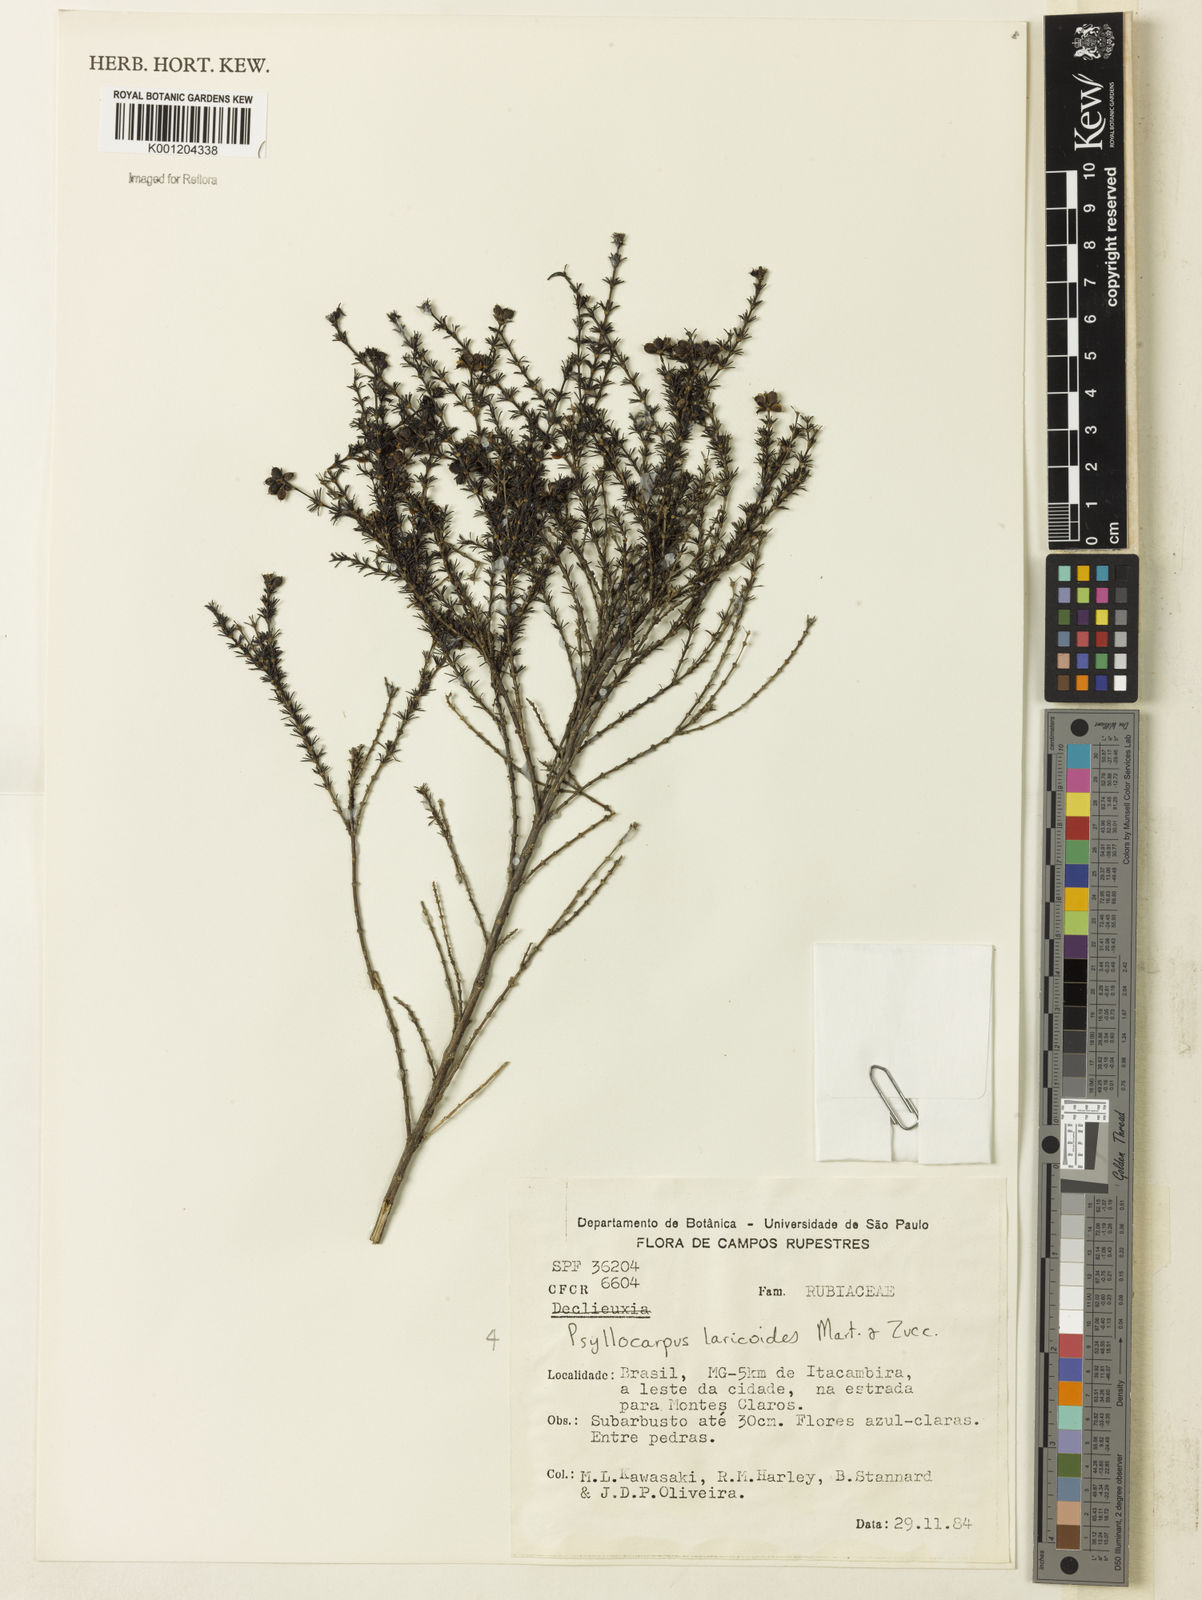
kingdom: Plantae
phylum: Tracheophyta
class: Magnoliopsida
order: Gentianales
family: Rubiaceae
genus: Psyllocarpus
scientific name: Psyllocarpus laricoides
